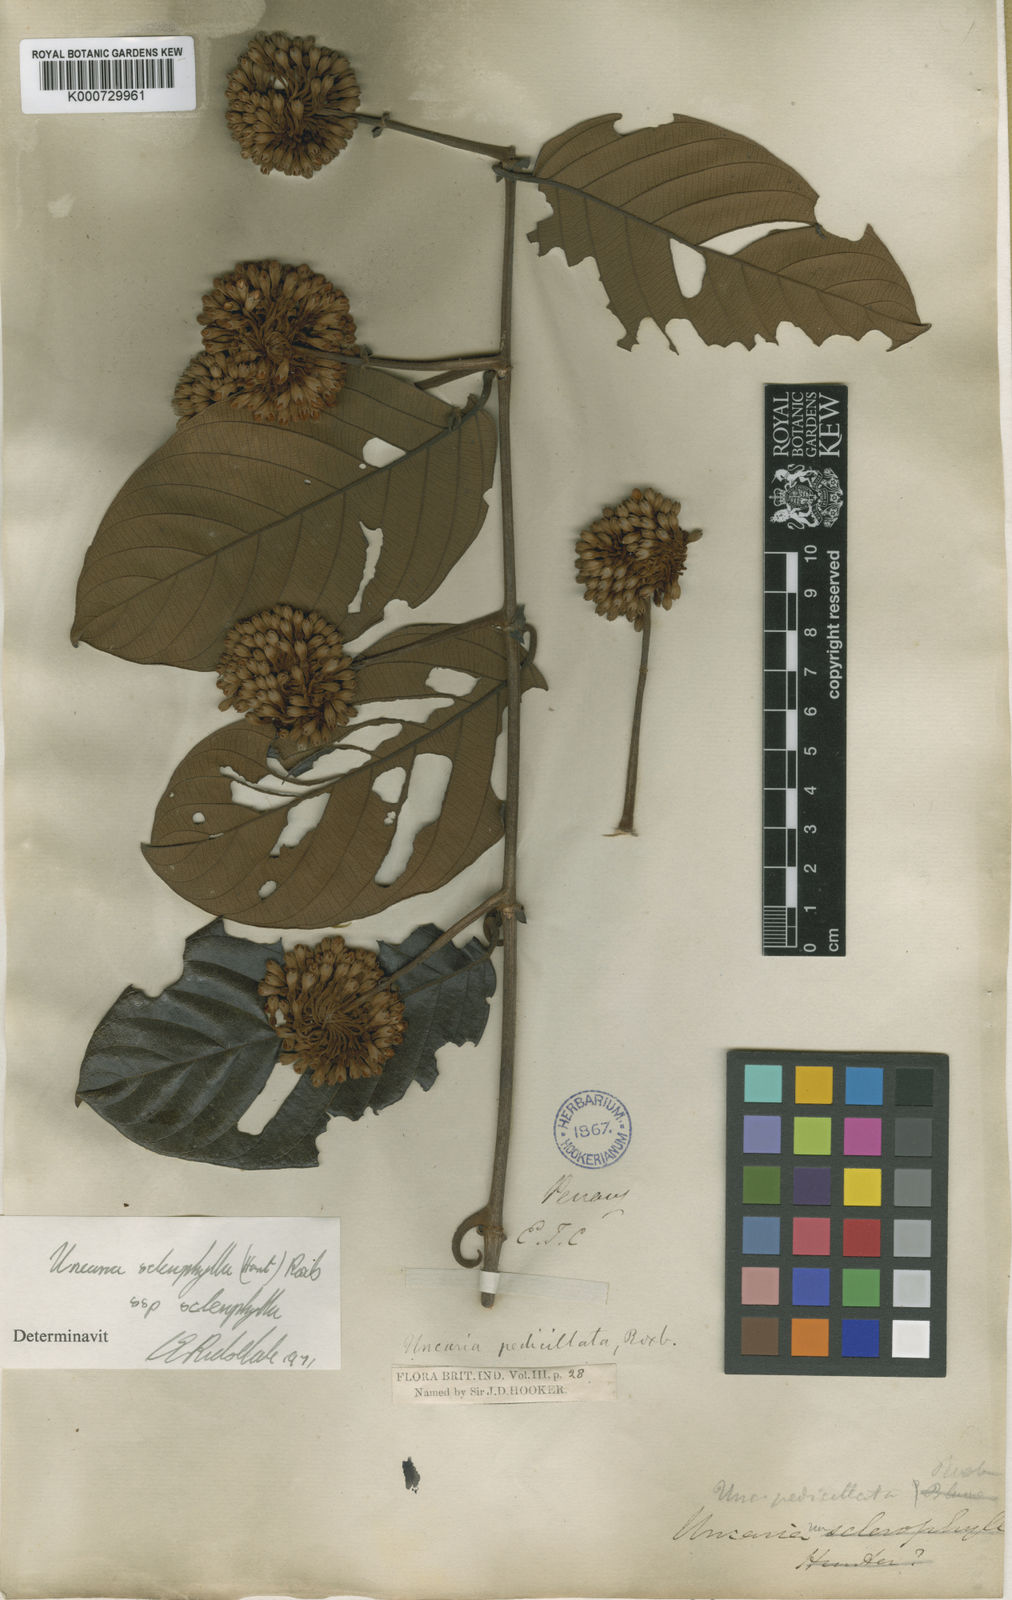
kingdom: Plantae
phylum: Tracheophyta
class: Magnoliopsida
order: Gentianales
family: Rubiaceae
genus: Uncaria
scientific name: Uncaria cordata
